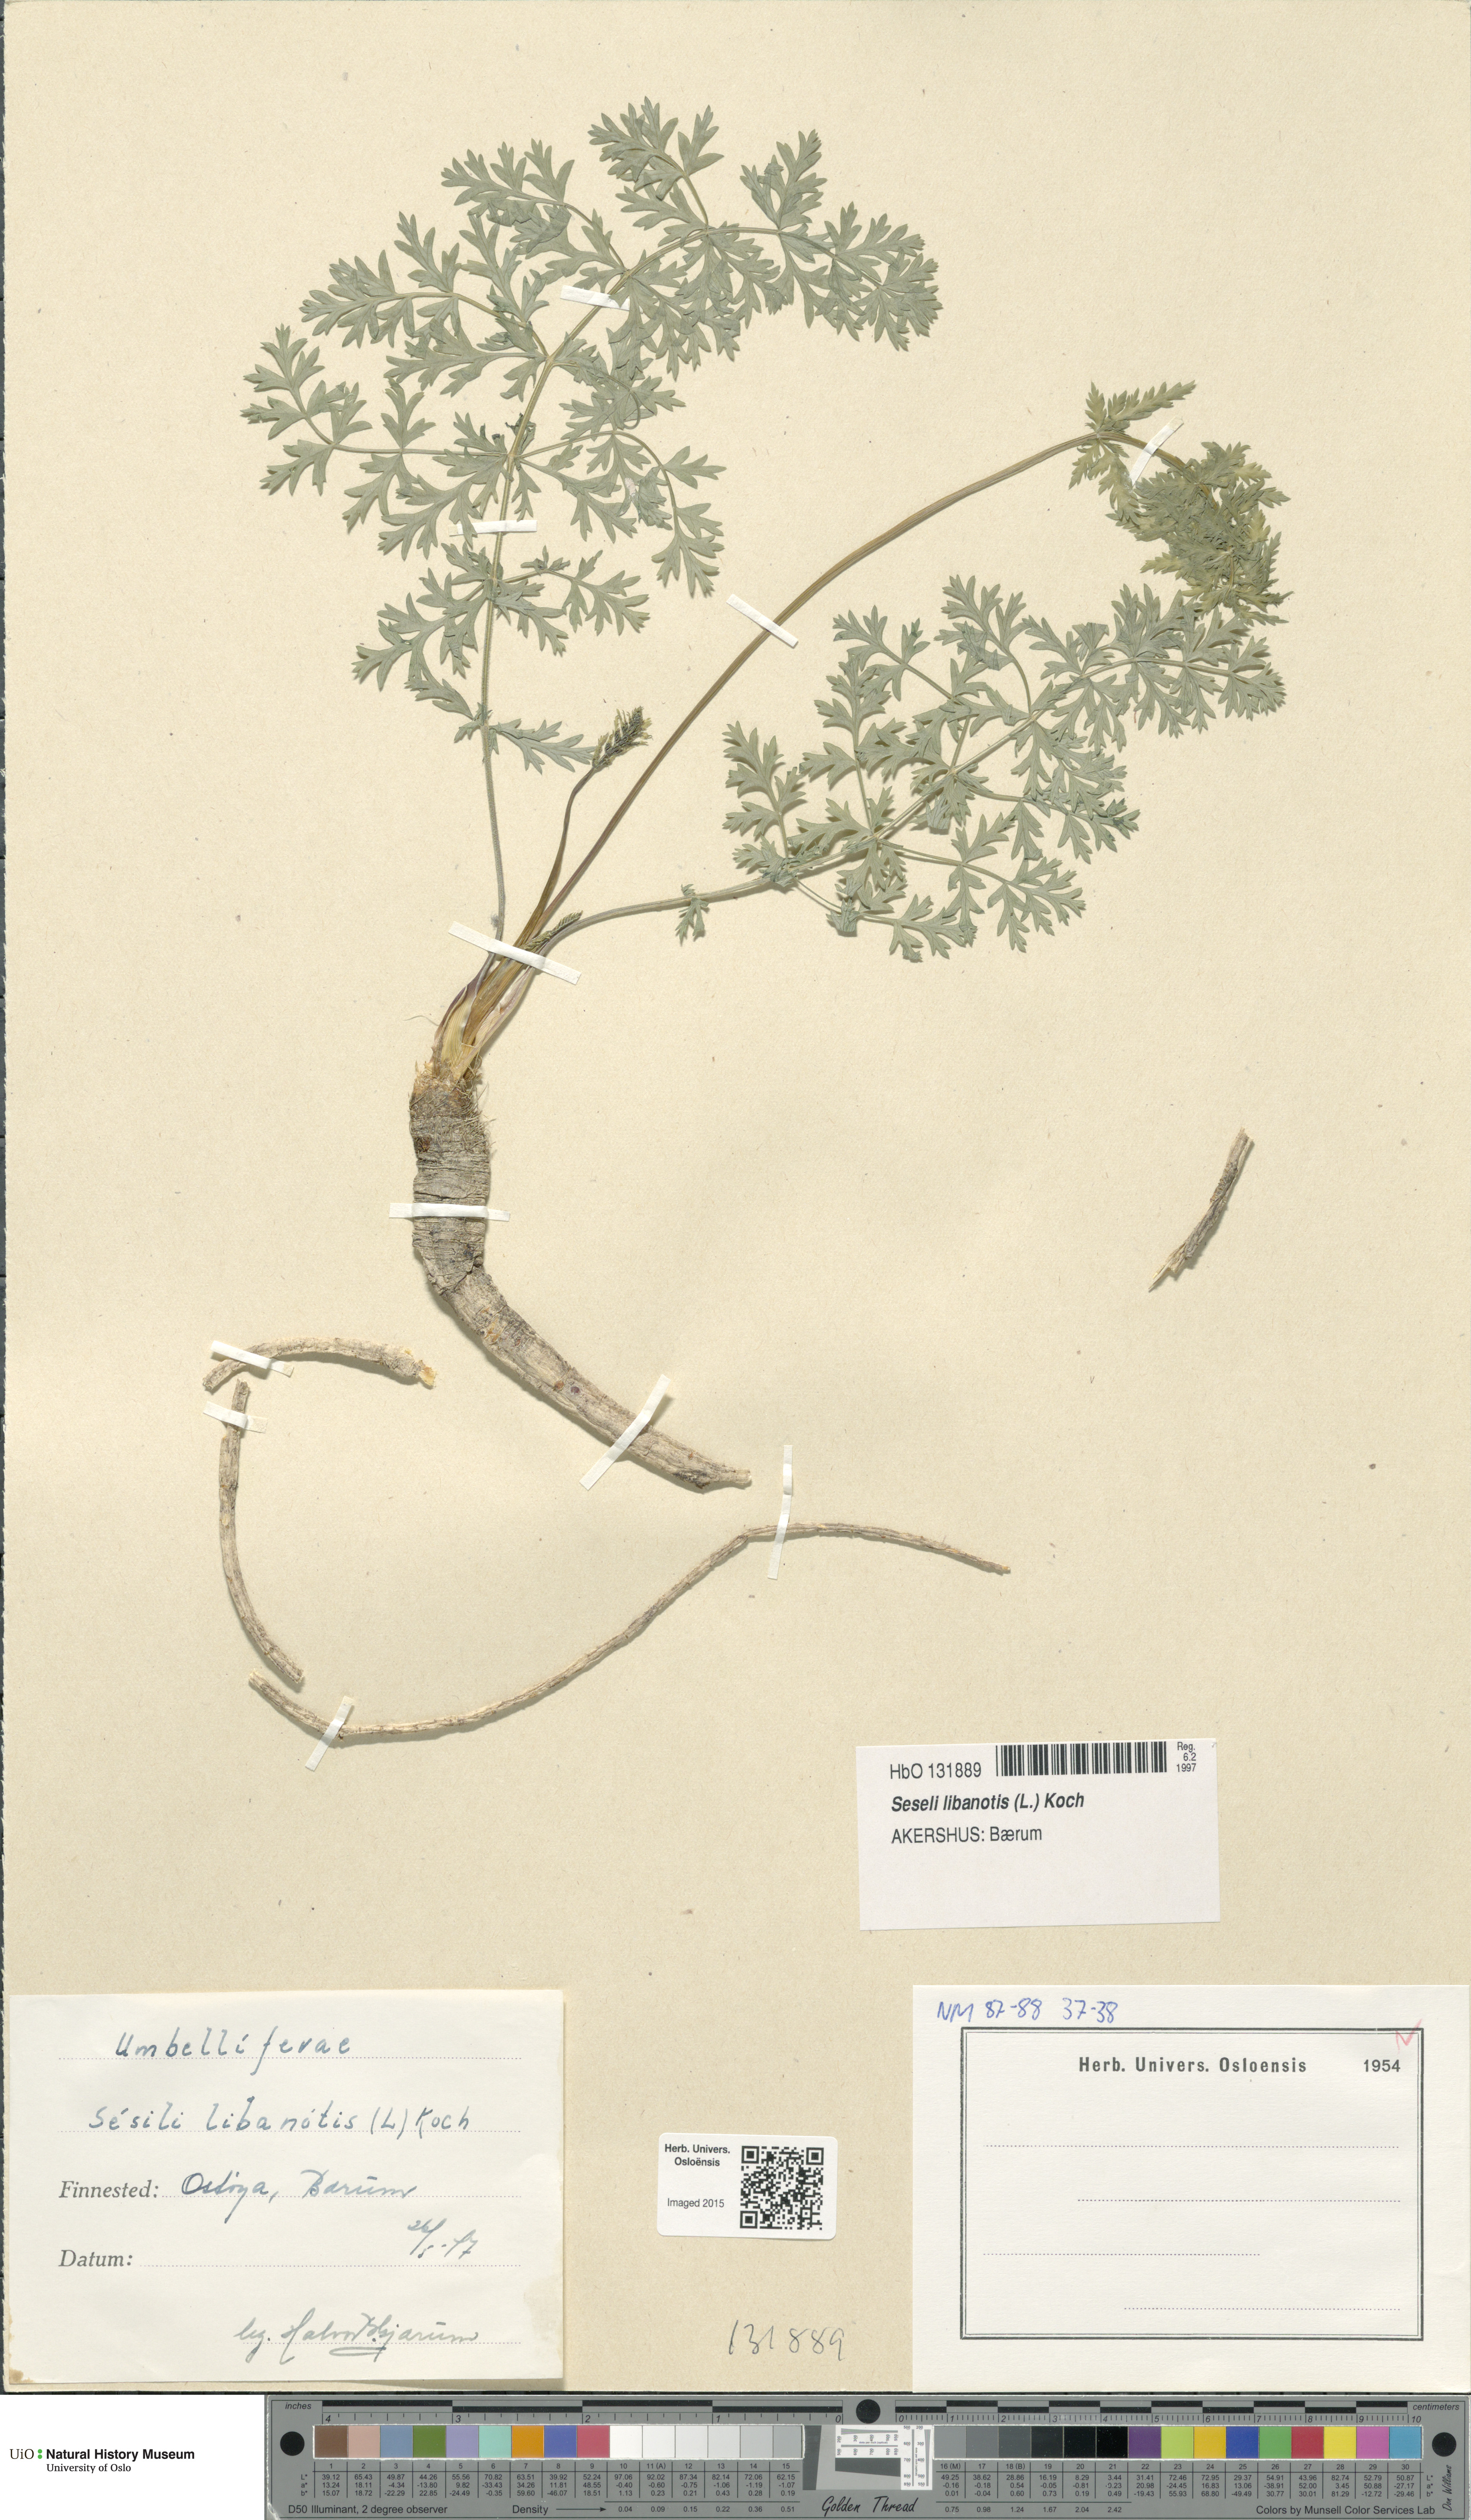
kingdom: Plantae
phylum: Tracheophyta
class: Magnoliopsida
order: Apiales
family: Apiaceae
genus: Seseli
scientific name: Seseli libanotis
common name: Mooncarrot
